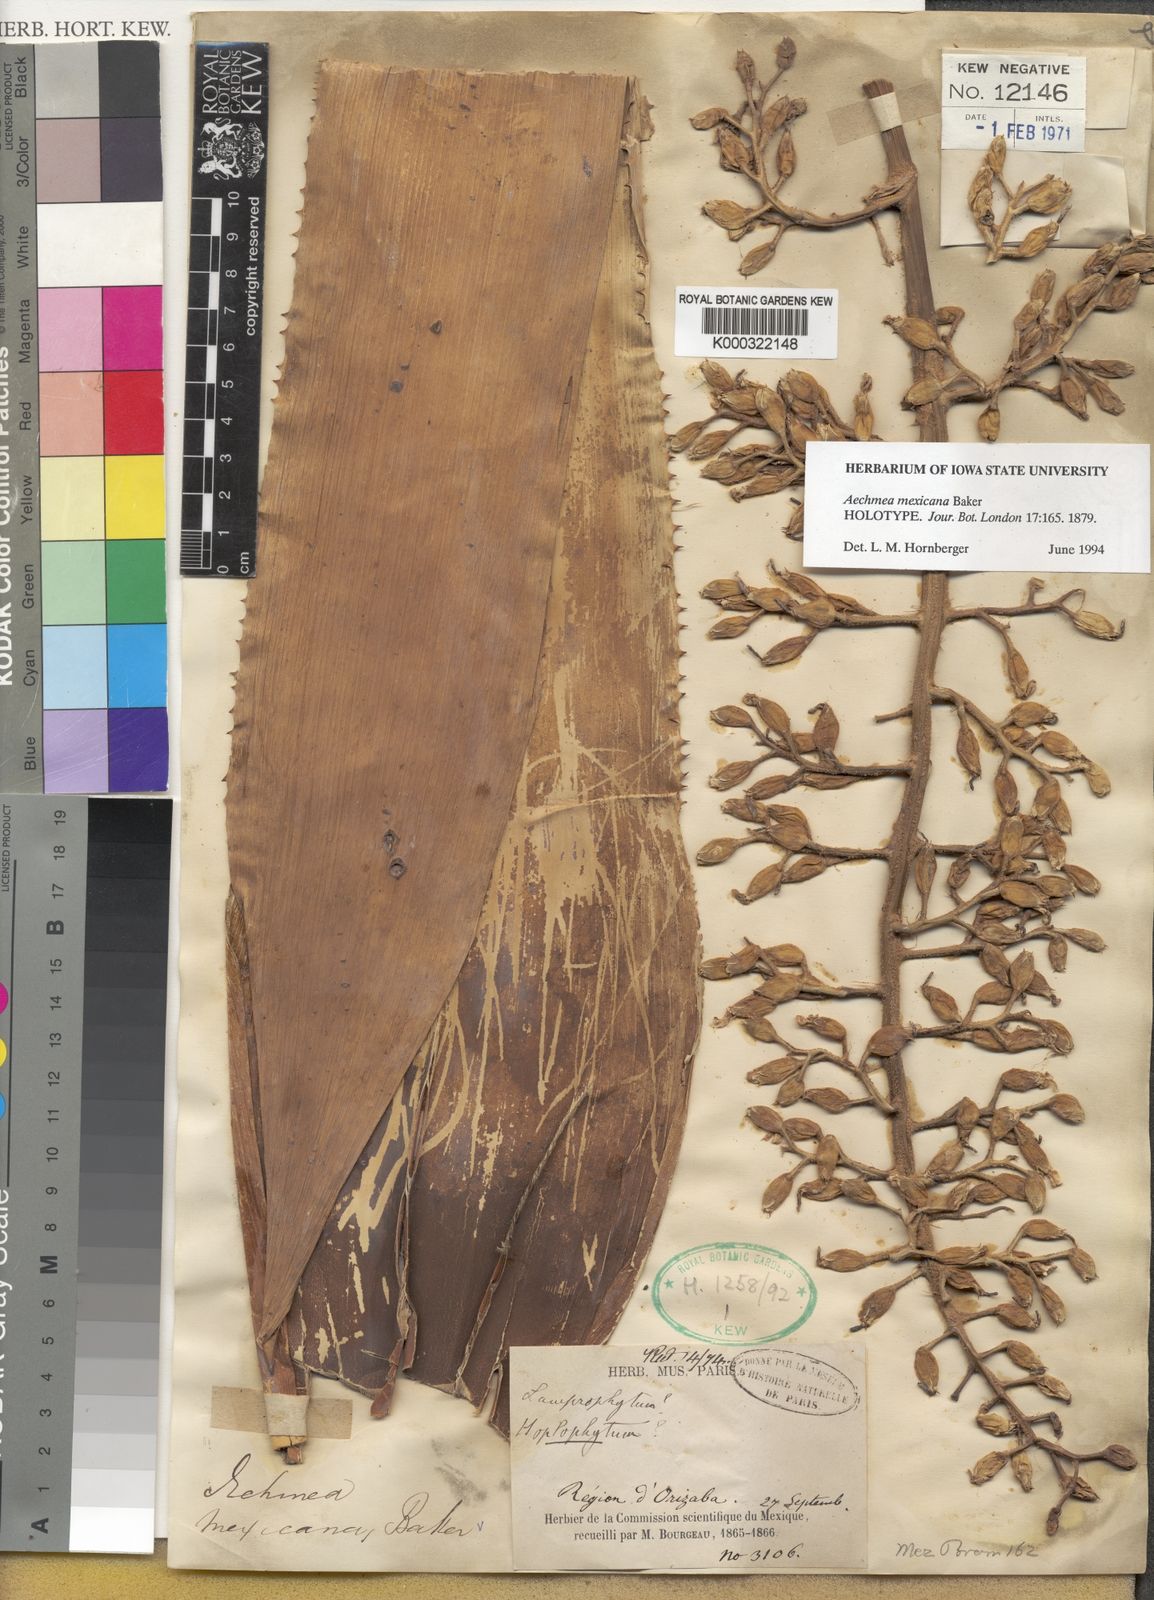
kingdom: Plantae
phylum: Tracheophyta
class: Liliopsida
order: Poales
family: Bromeliaceae
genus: Aechmea
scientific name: Aechmea mexicana
